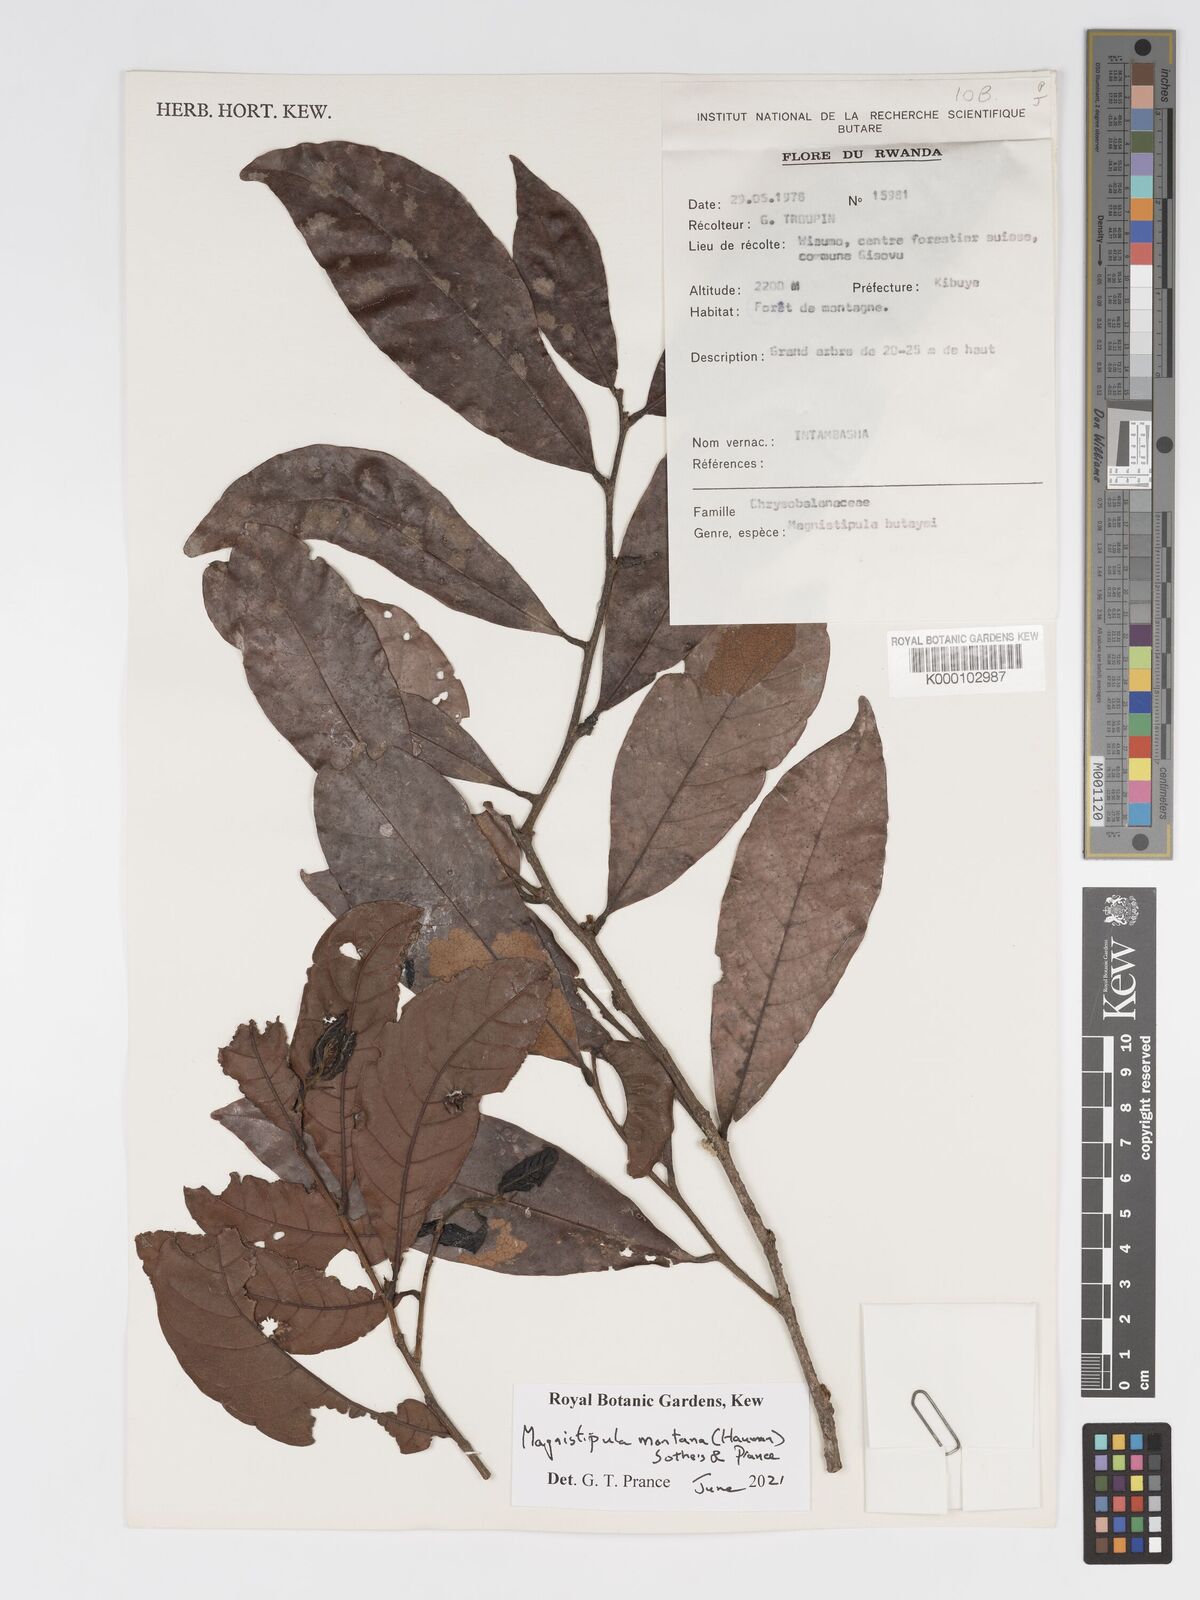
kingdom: Plantae
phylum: Tracheophyta
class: Magnoliopsida
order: Malpighiales
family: Chrysobalanaceae
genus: Magnistipula
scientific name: Magnistipula butayei
